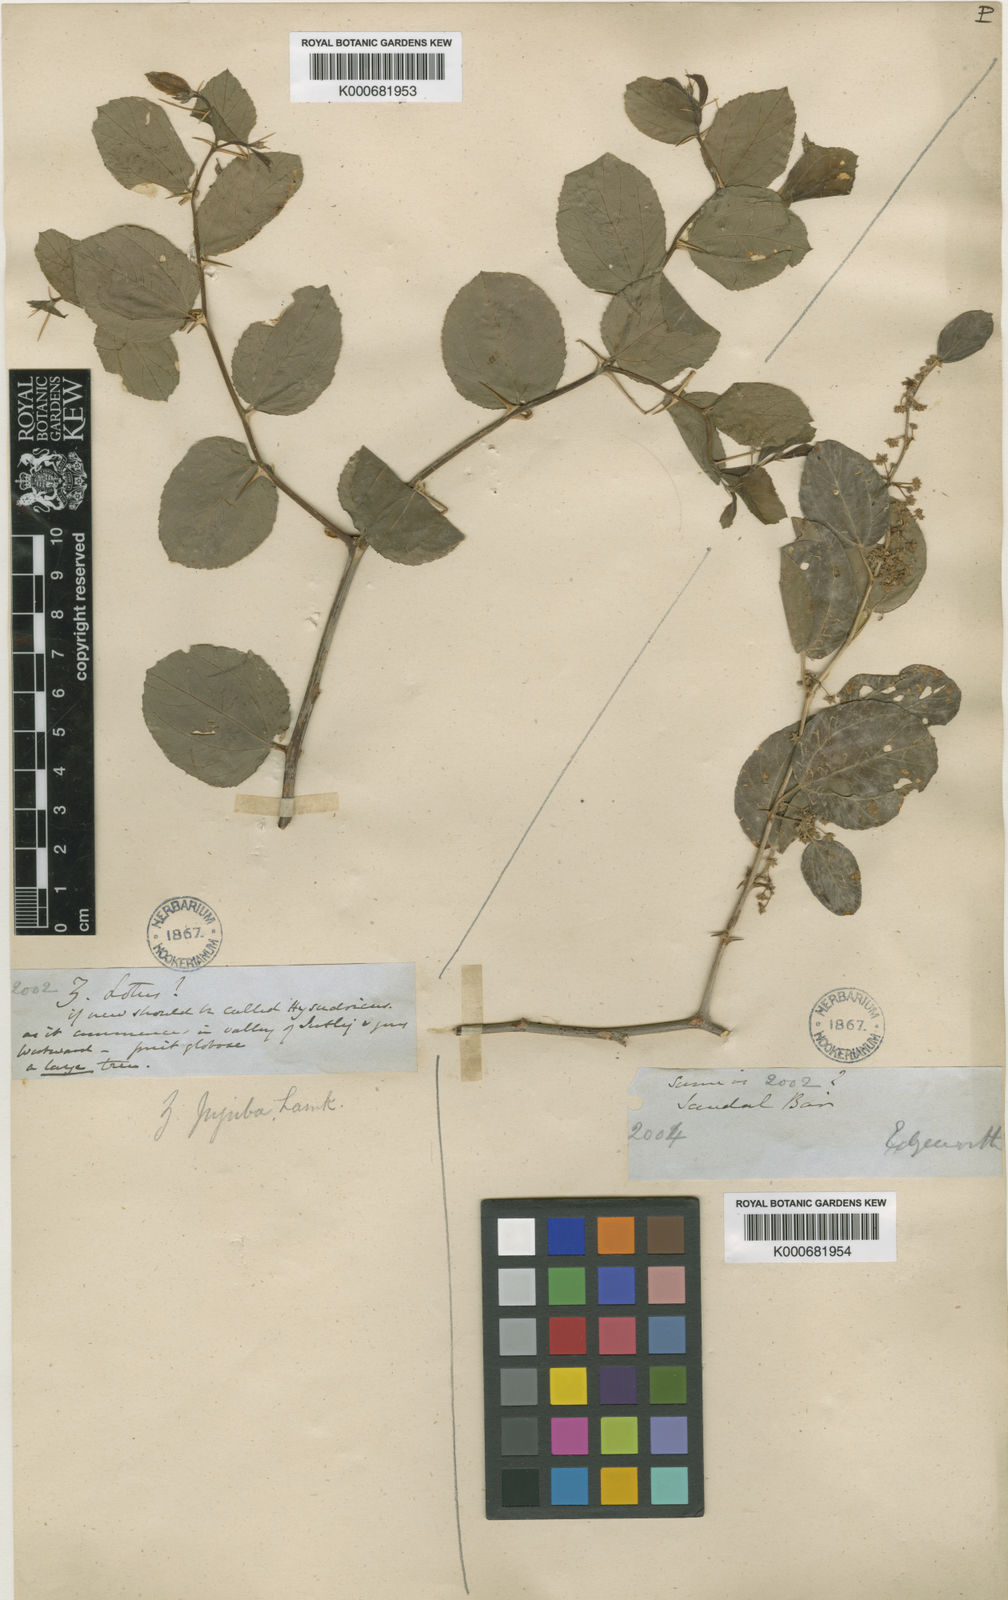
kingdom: Plantae
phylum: Tracheophyta
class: Magnoliopsida
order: Rosales
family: Rhamnaceae
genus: Ziziphus
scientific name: Ziziphus
